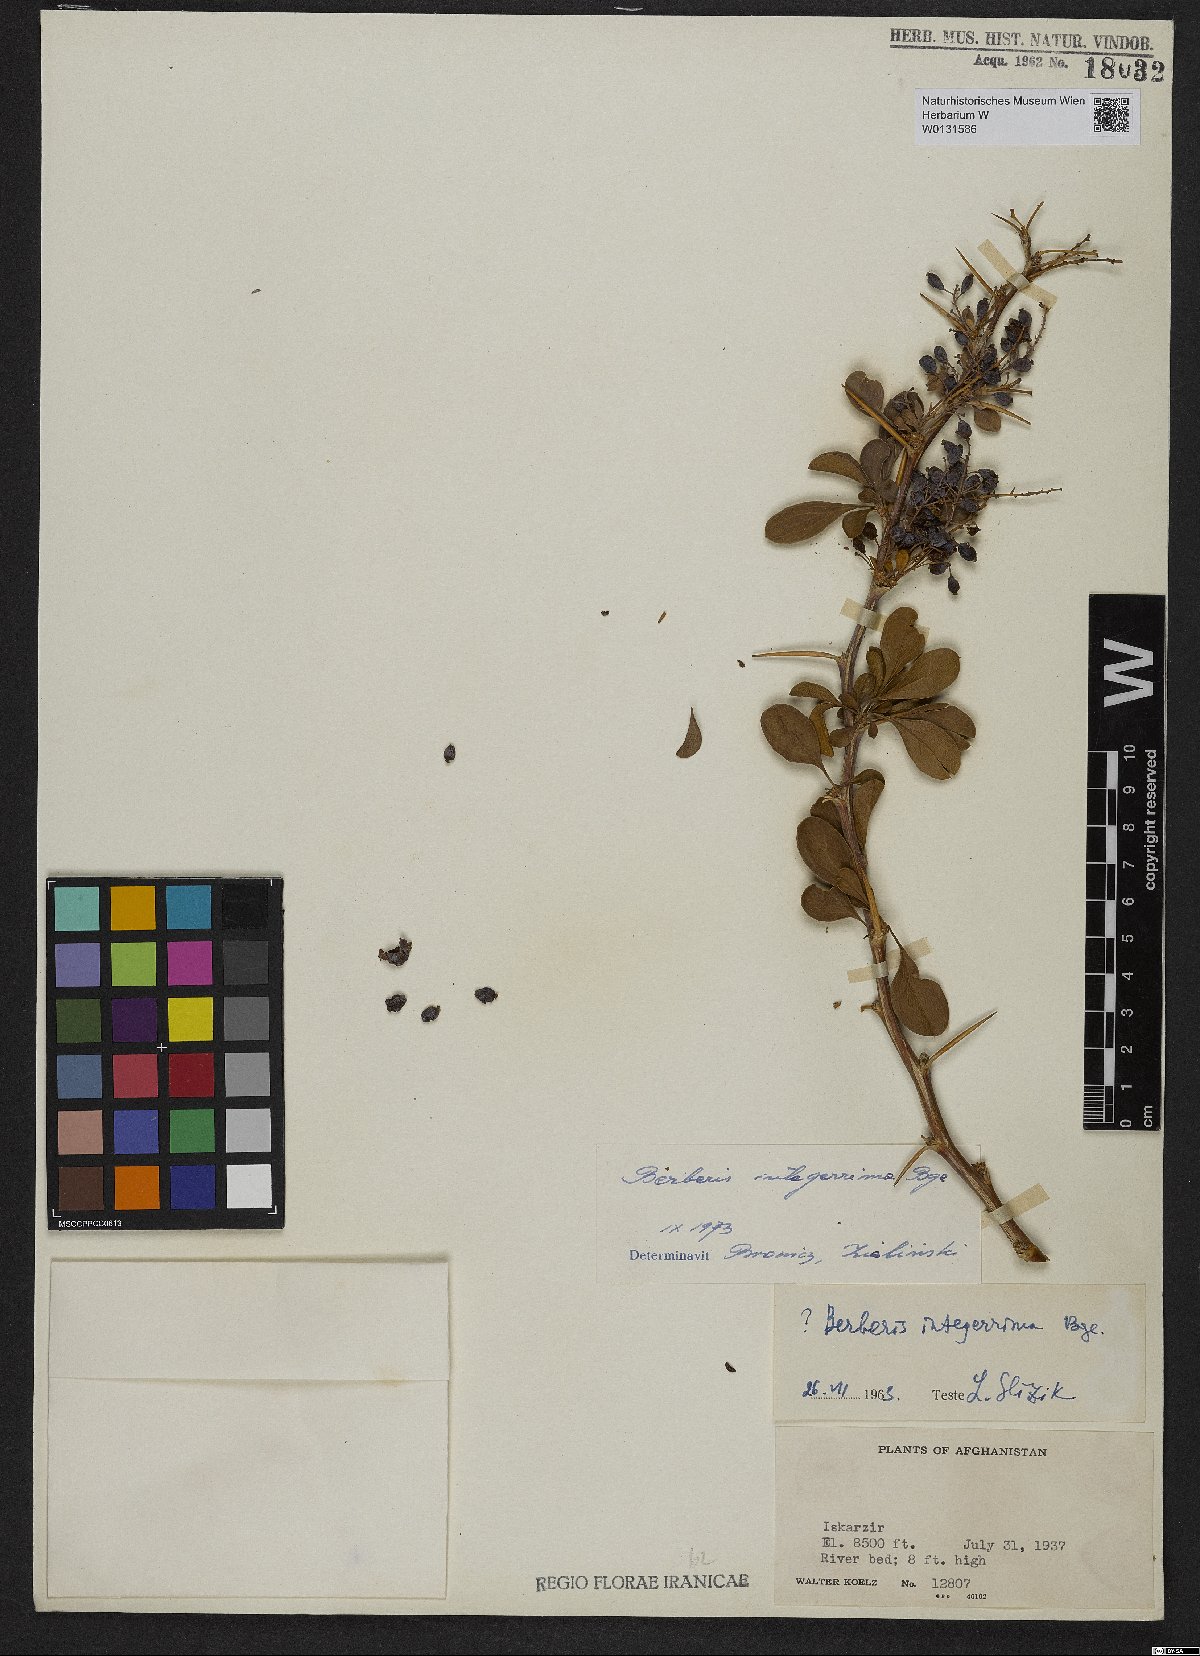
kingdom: Plantae
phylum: Tracheophyta
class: Magnoliopsida
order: Ranunculales
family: Berberidaceae
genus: Berberis
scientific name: Berberis integerrima
